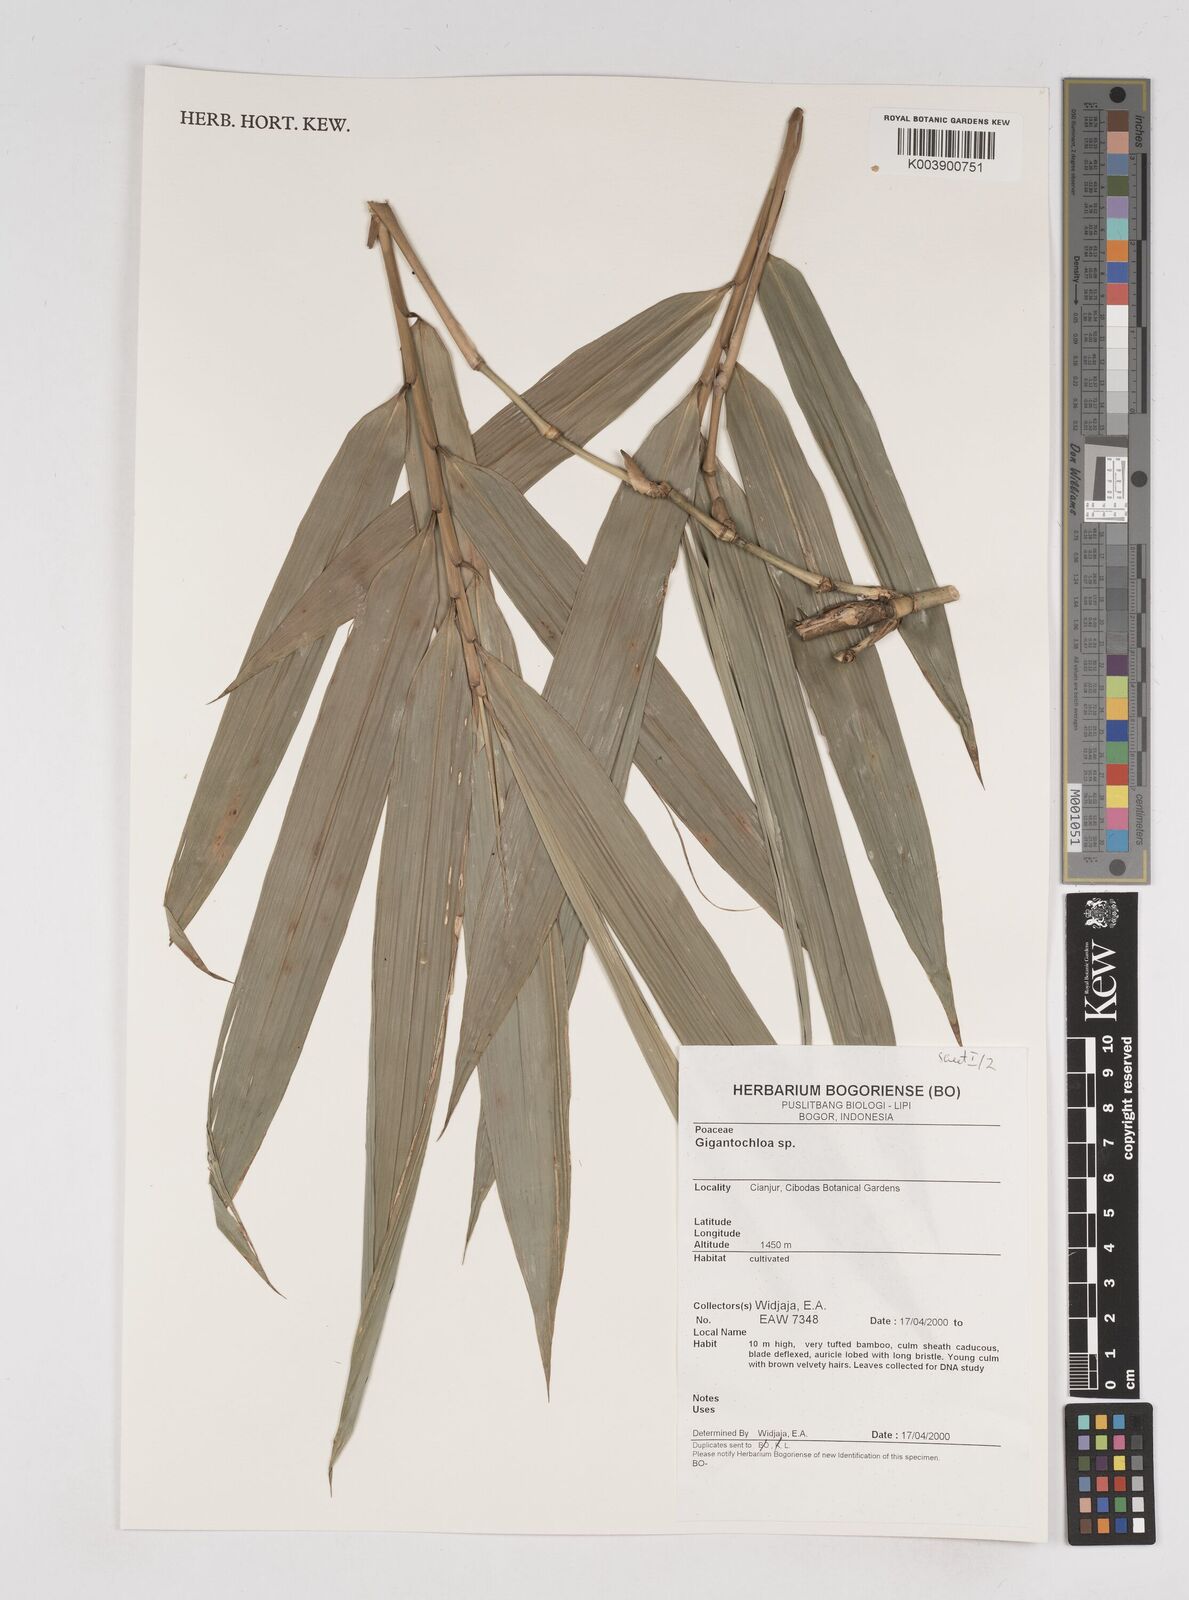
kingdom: Plantae
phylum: Tracheophyta
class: Liliopsida
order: Poales
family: Poaceae
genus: Gigantochloa
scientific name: Gigantochloa
